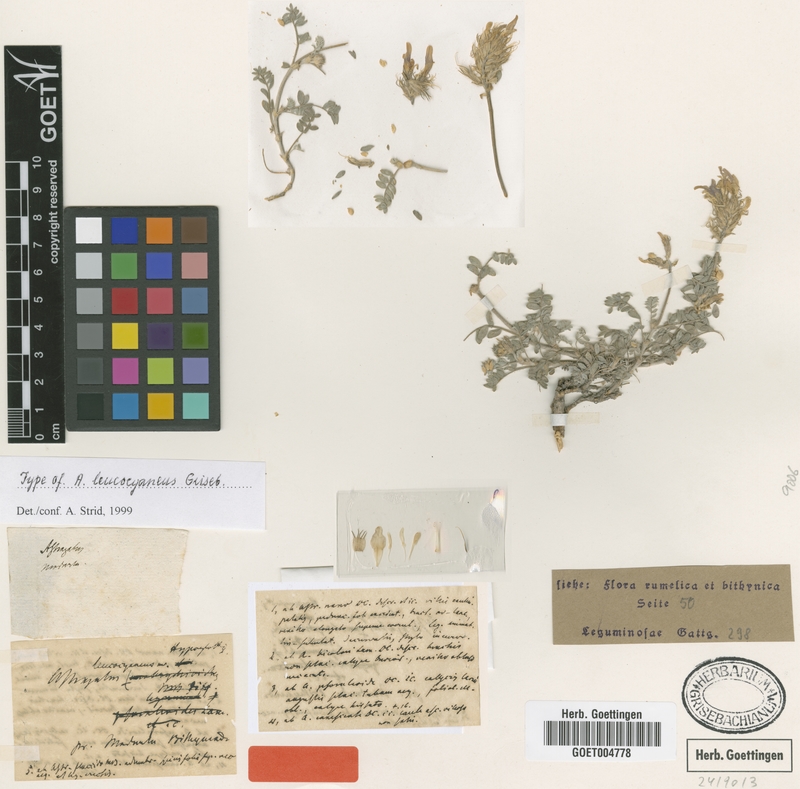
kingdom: Plantae
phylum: Tracheophyta
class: Magnoliopsida
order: Fabales
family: Fabaceae
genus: Astragalus
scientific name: Astragalus mesogitanus
